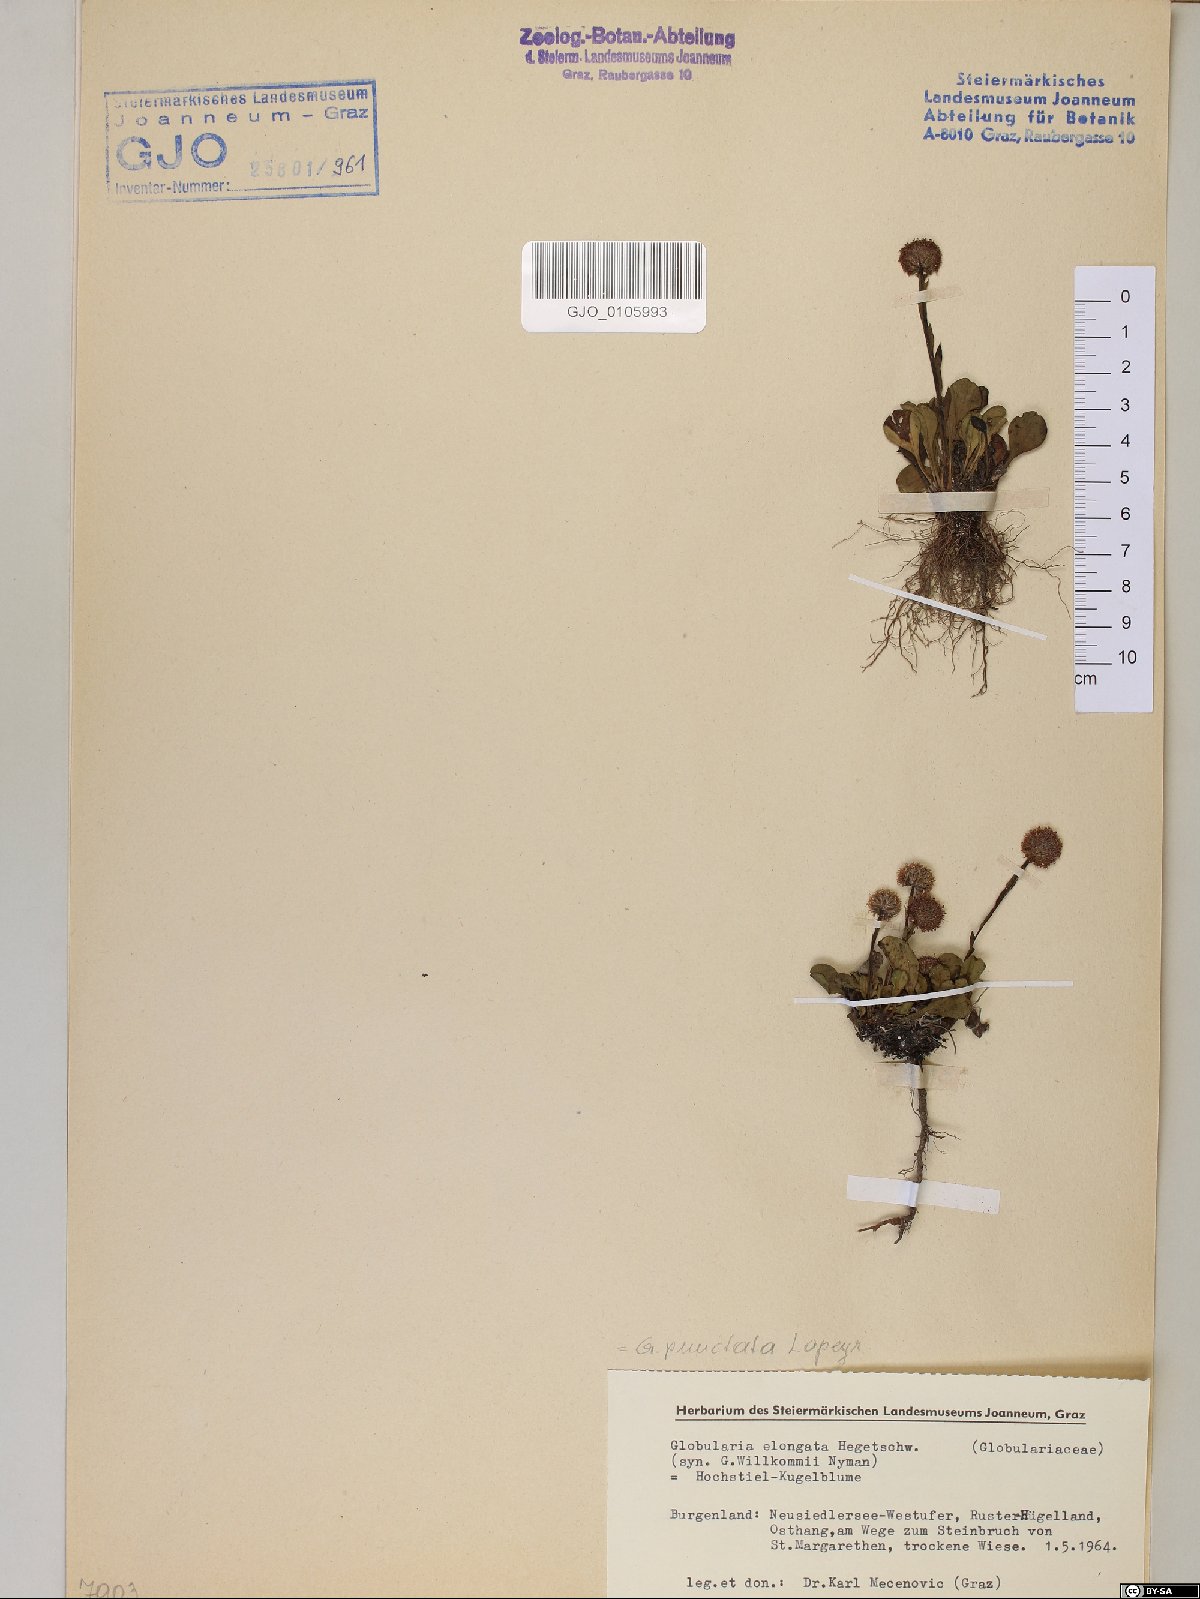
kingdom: Plantae
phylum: Tracheophyta
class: Magnoliopsida
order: Lamiales
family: Plantaginaceae
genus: Globularia
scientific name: Globularia bisnagarica
